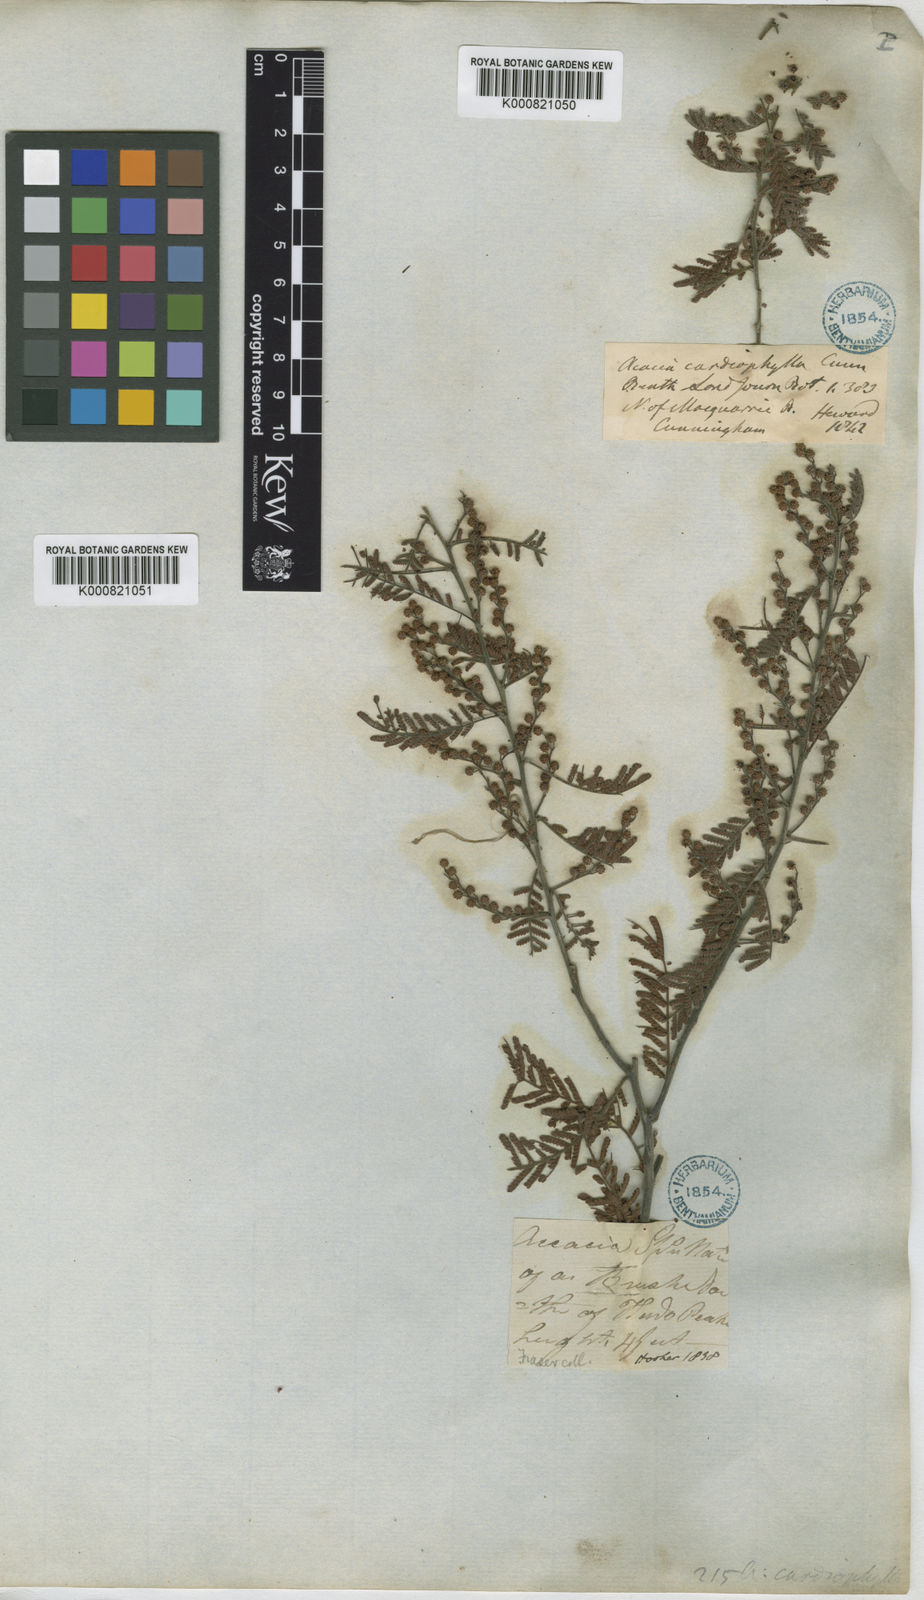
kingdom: Plantae
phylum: Tracheophyta
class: Magnoliopsida
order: Fabales
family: Fabaceae
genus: Acacia
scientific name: Acacia cardiophylla
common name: Wyalong wattle
